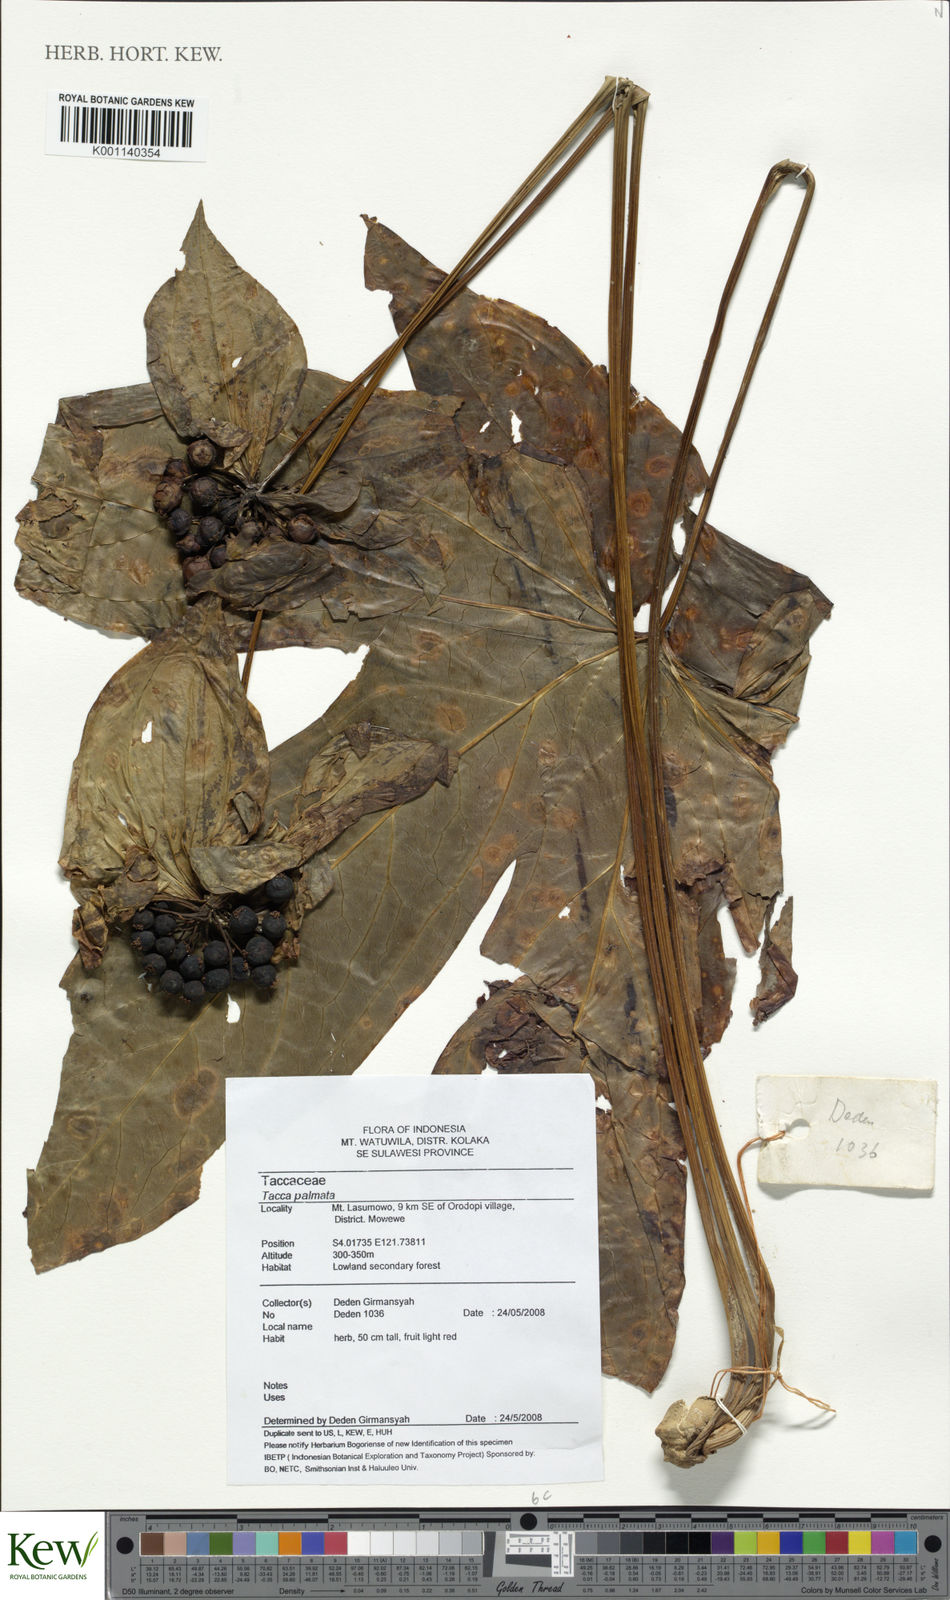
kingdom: Plantae
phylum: Tracheophyta
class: Liliopsida
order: Dioscoreales
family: Dioscoreaceae
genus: Tacca
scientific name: Tacca palmata
